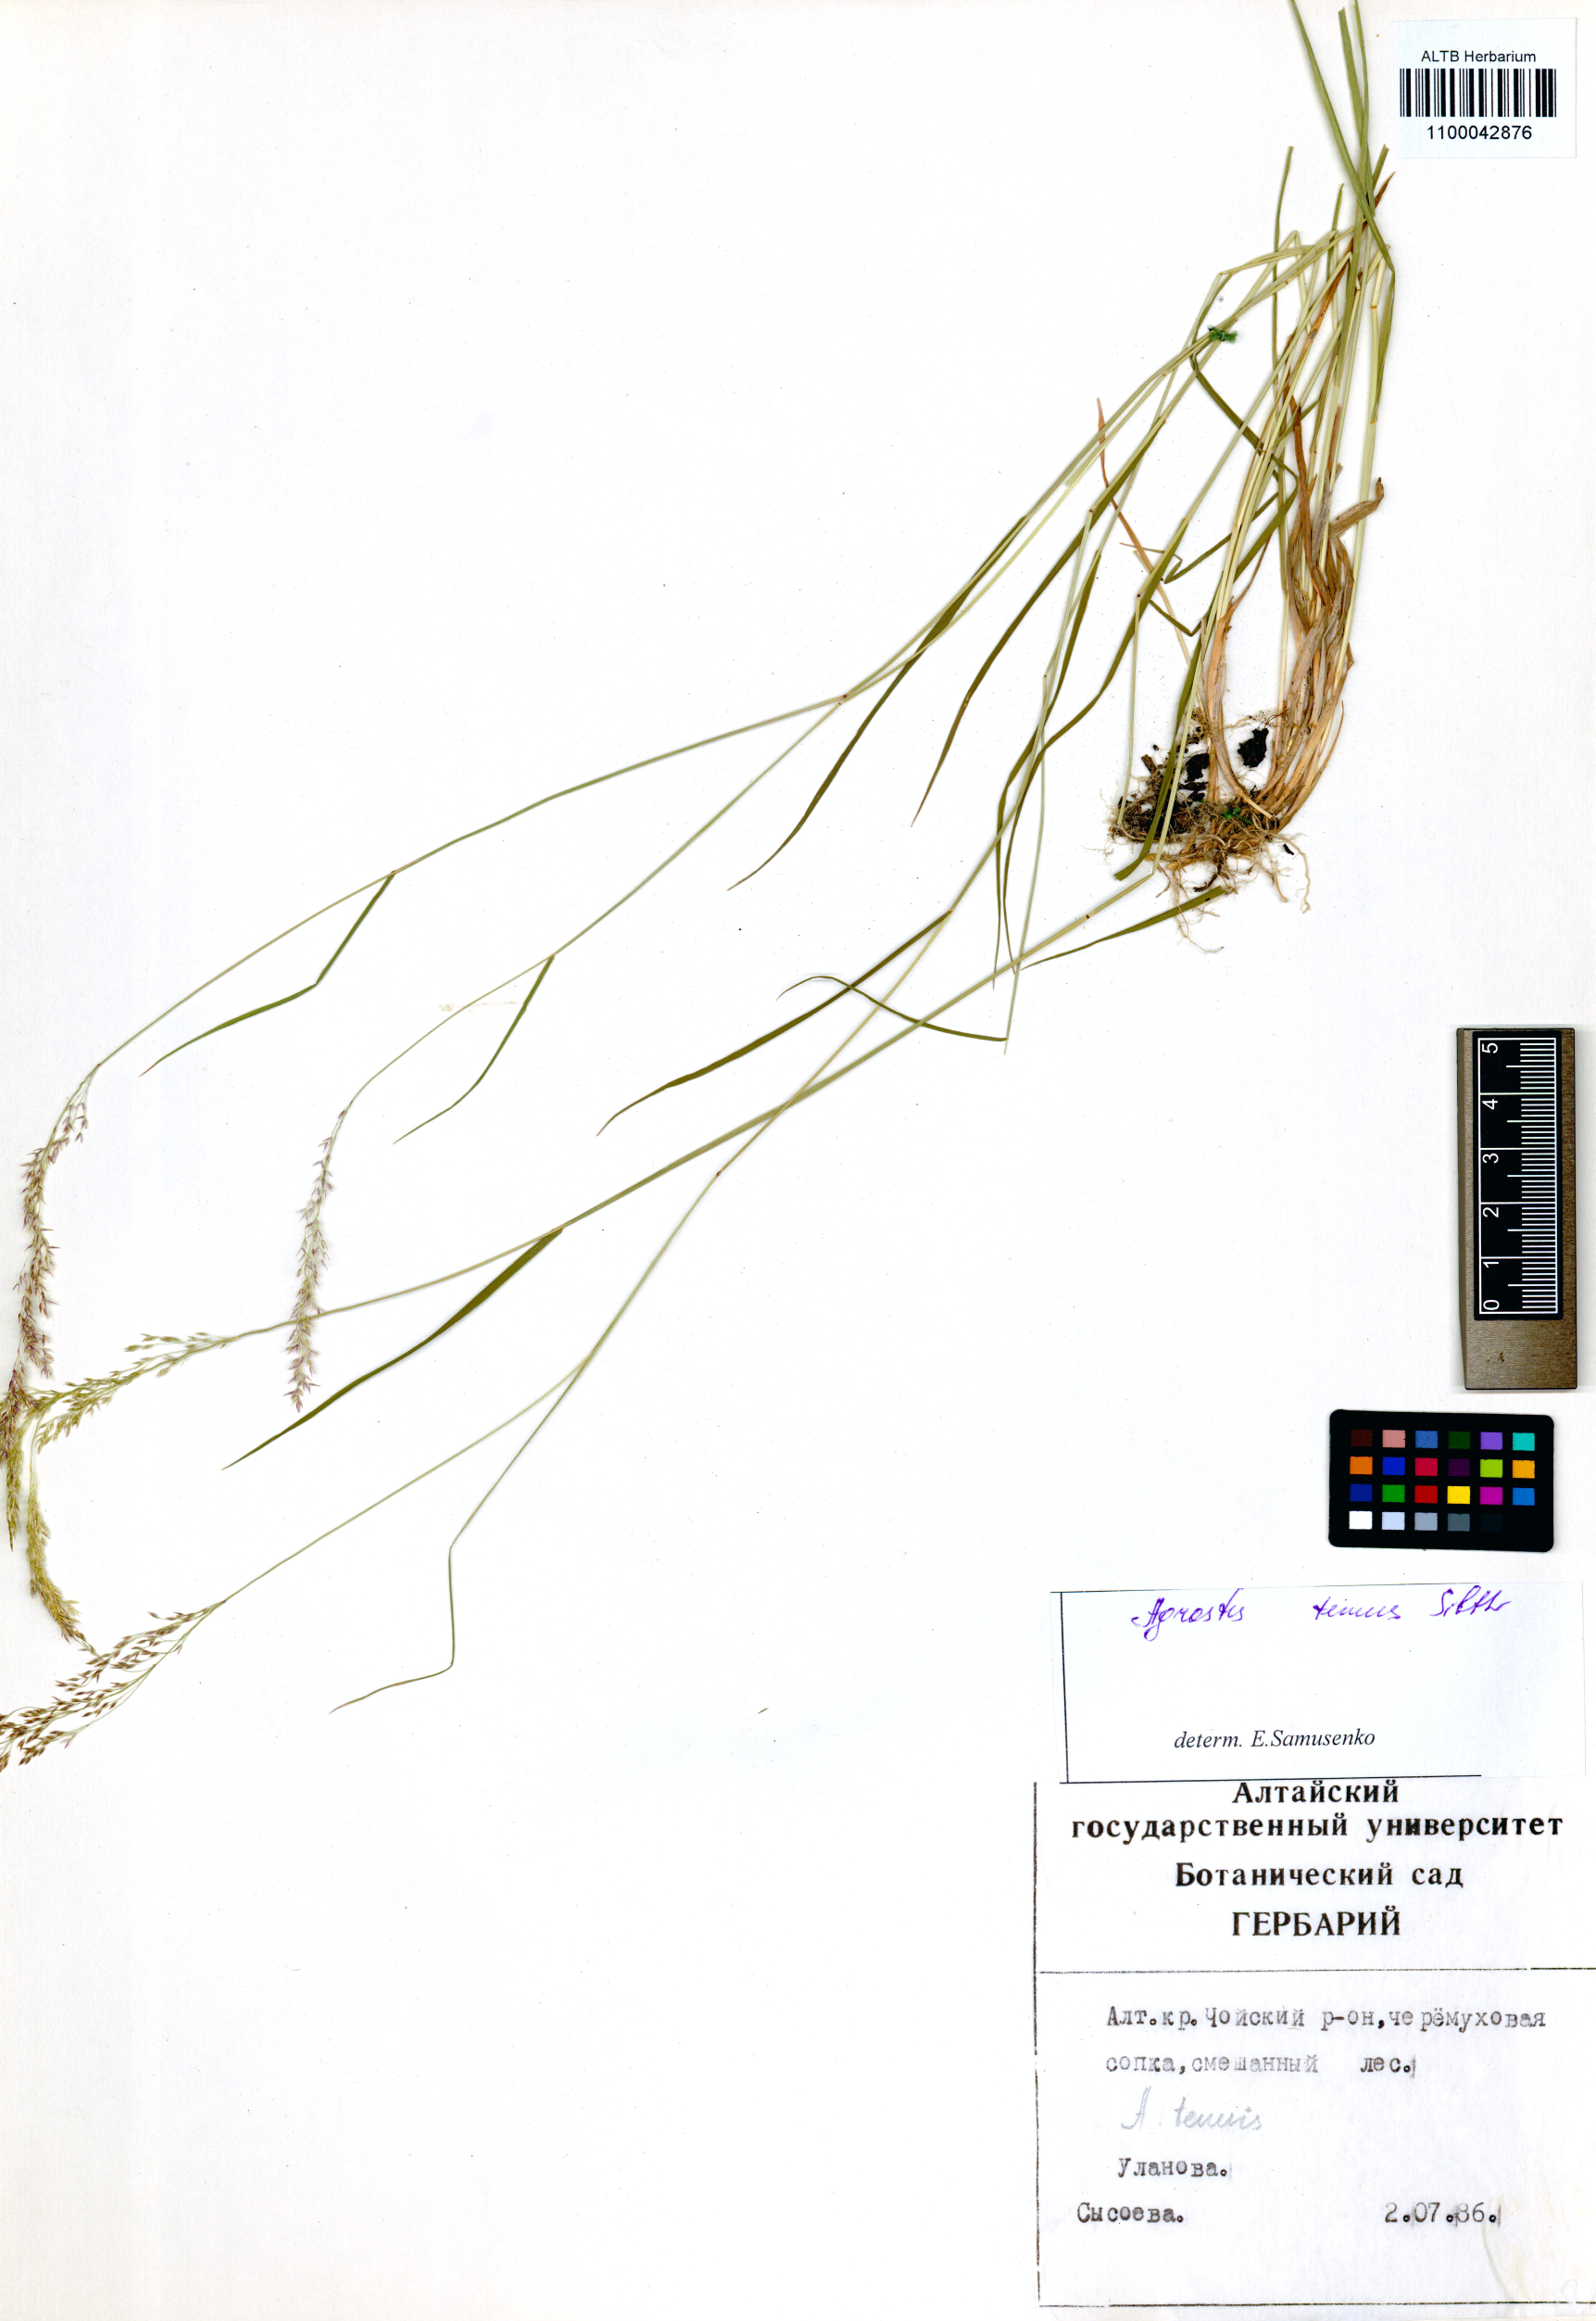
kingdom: Plantae
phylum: Tracheophyta
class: Liliopsida
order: Poales
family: Poaceae
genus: Agrostis
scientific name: Agrostis capillaris
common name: Colonial bentgrass
